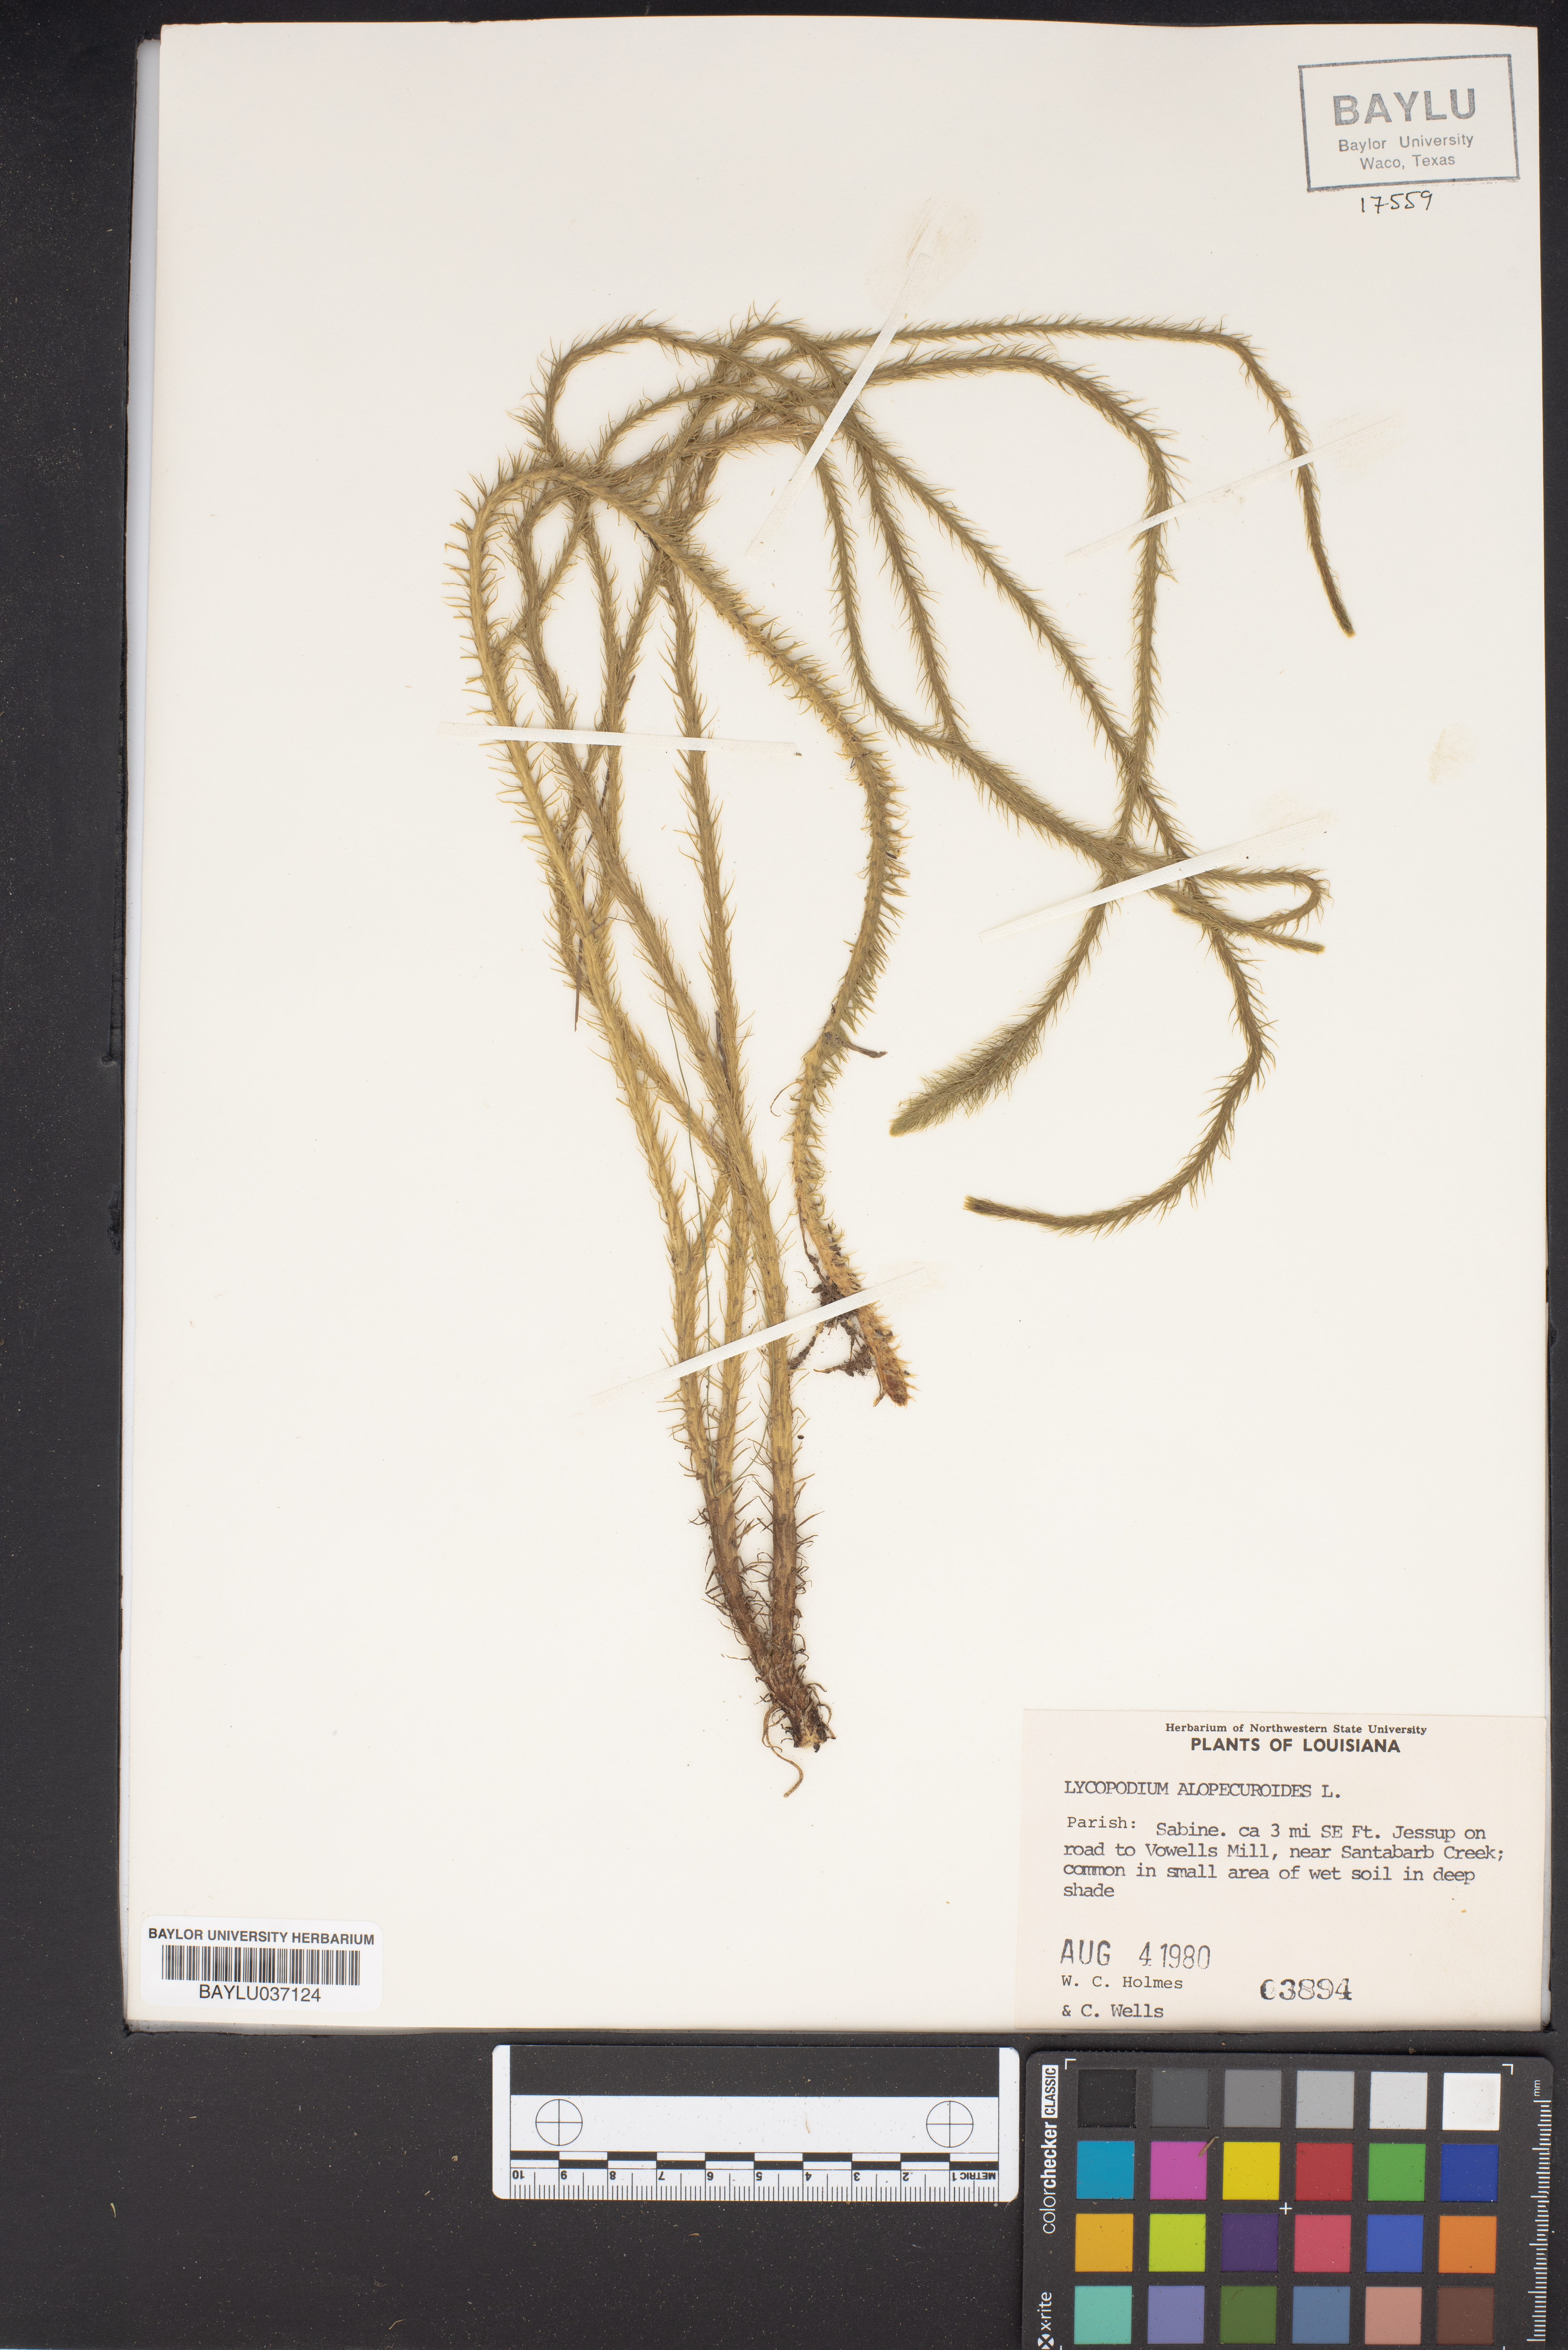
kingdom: Plantae
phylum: Tracheophyta
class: Lycopodiopsida
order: Lycopodiales
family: Lycopodiaceae
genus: Lycopodiella
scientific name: Lycopodiella alopecuroides
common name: Foxtail clubmoss
